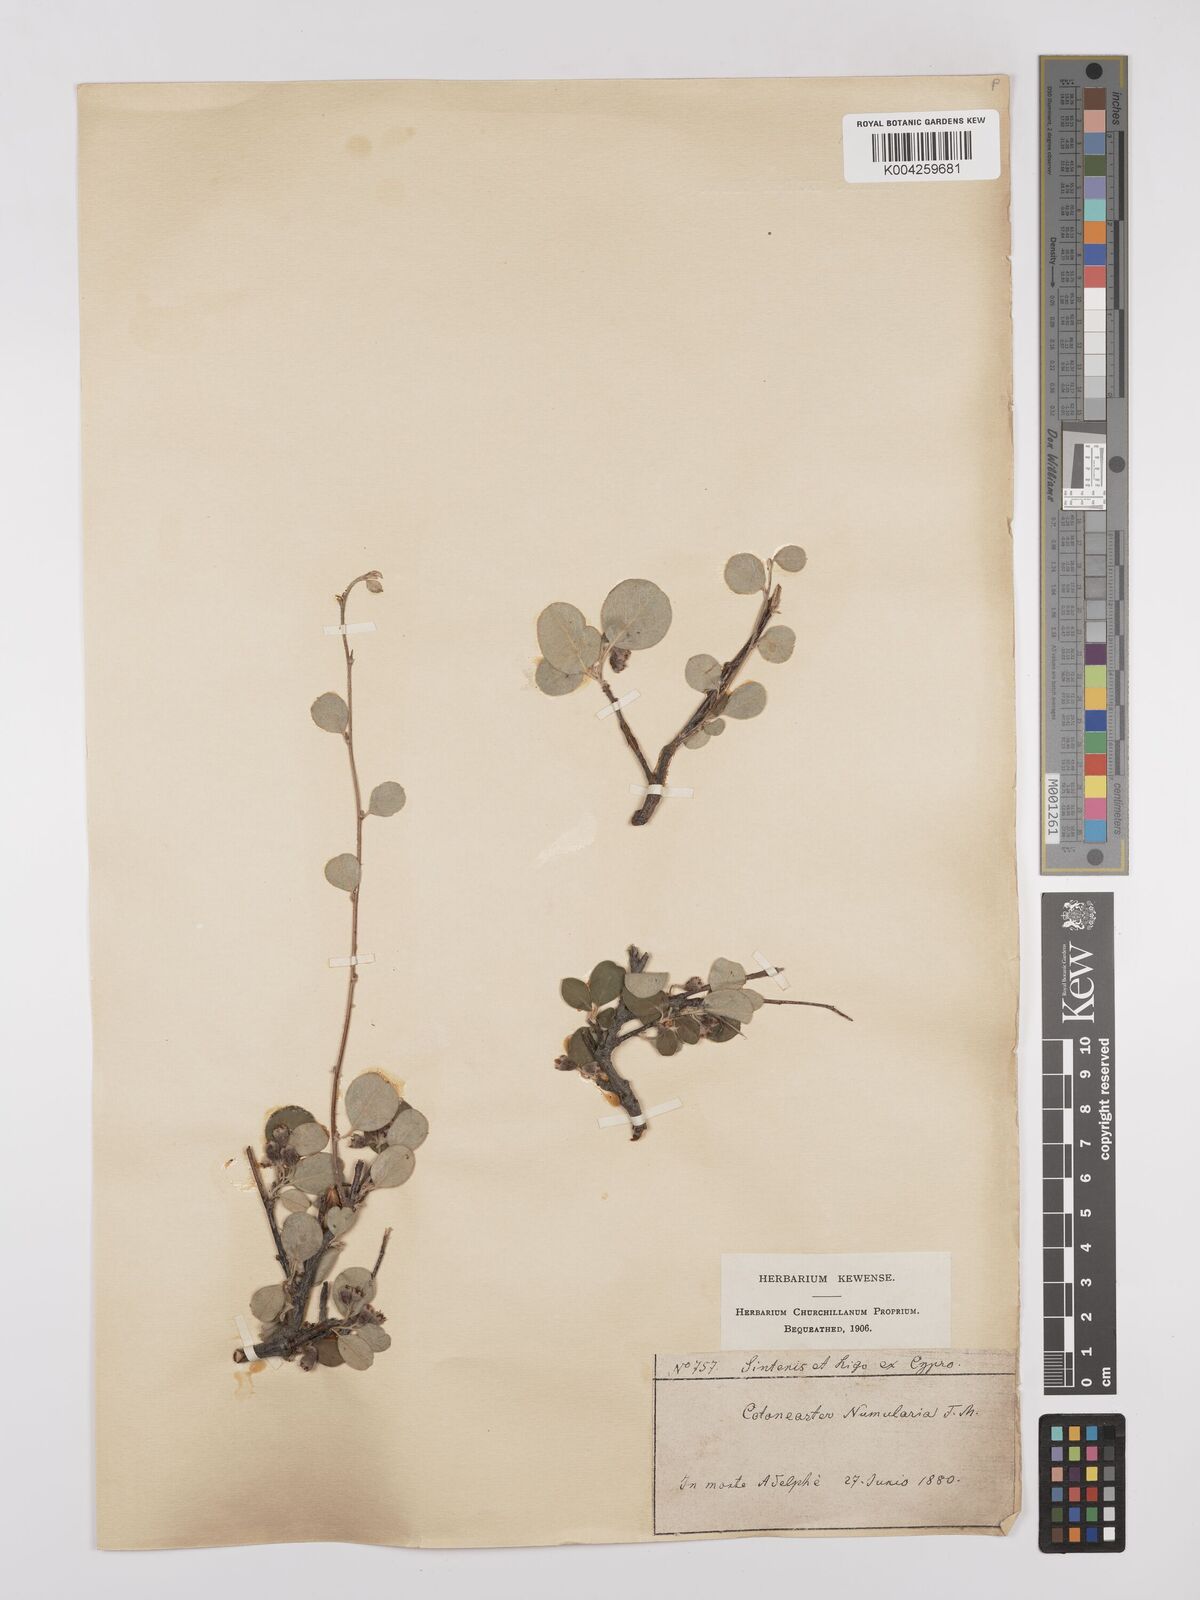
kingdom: Plantae
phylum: Tracheophyta
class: Magnoliopsida
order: Rosales
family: Rosaceae
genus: Cotoneaster
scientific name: Cotoneaster nummularius
